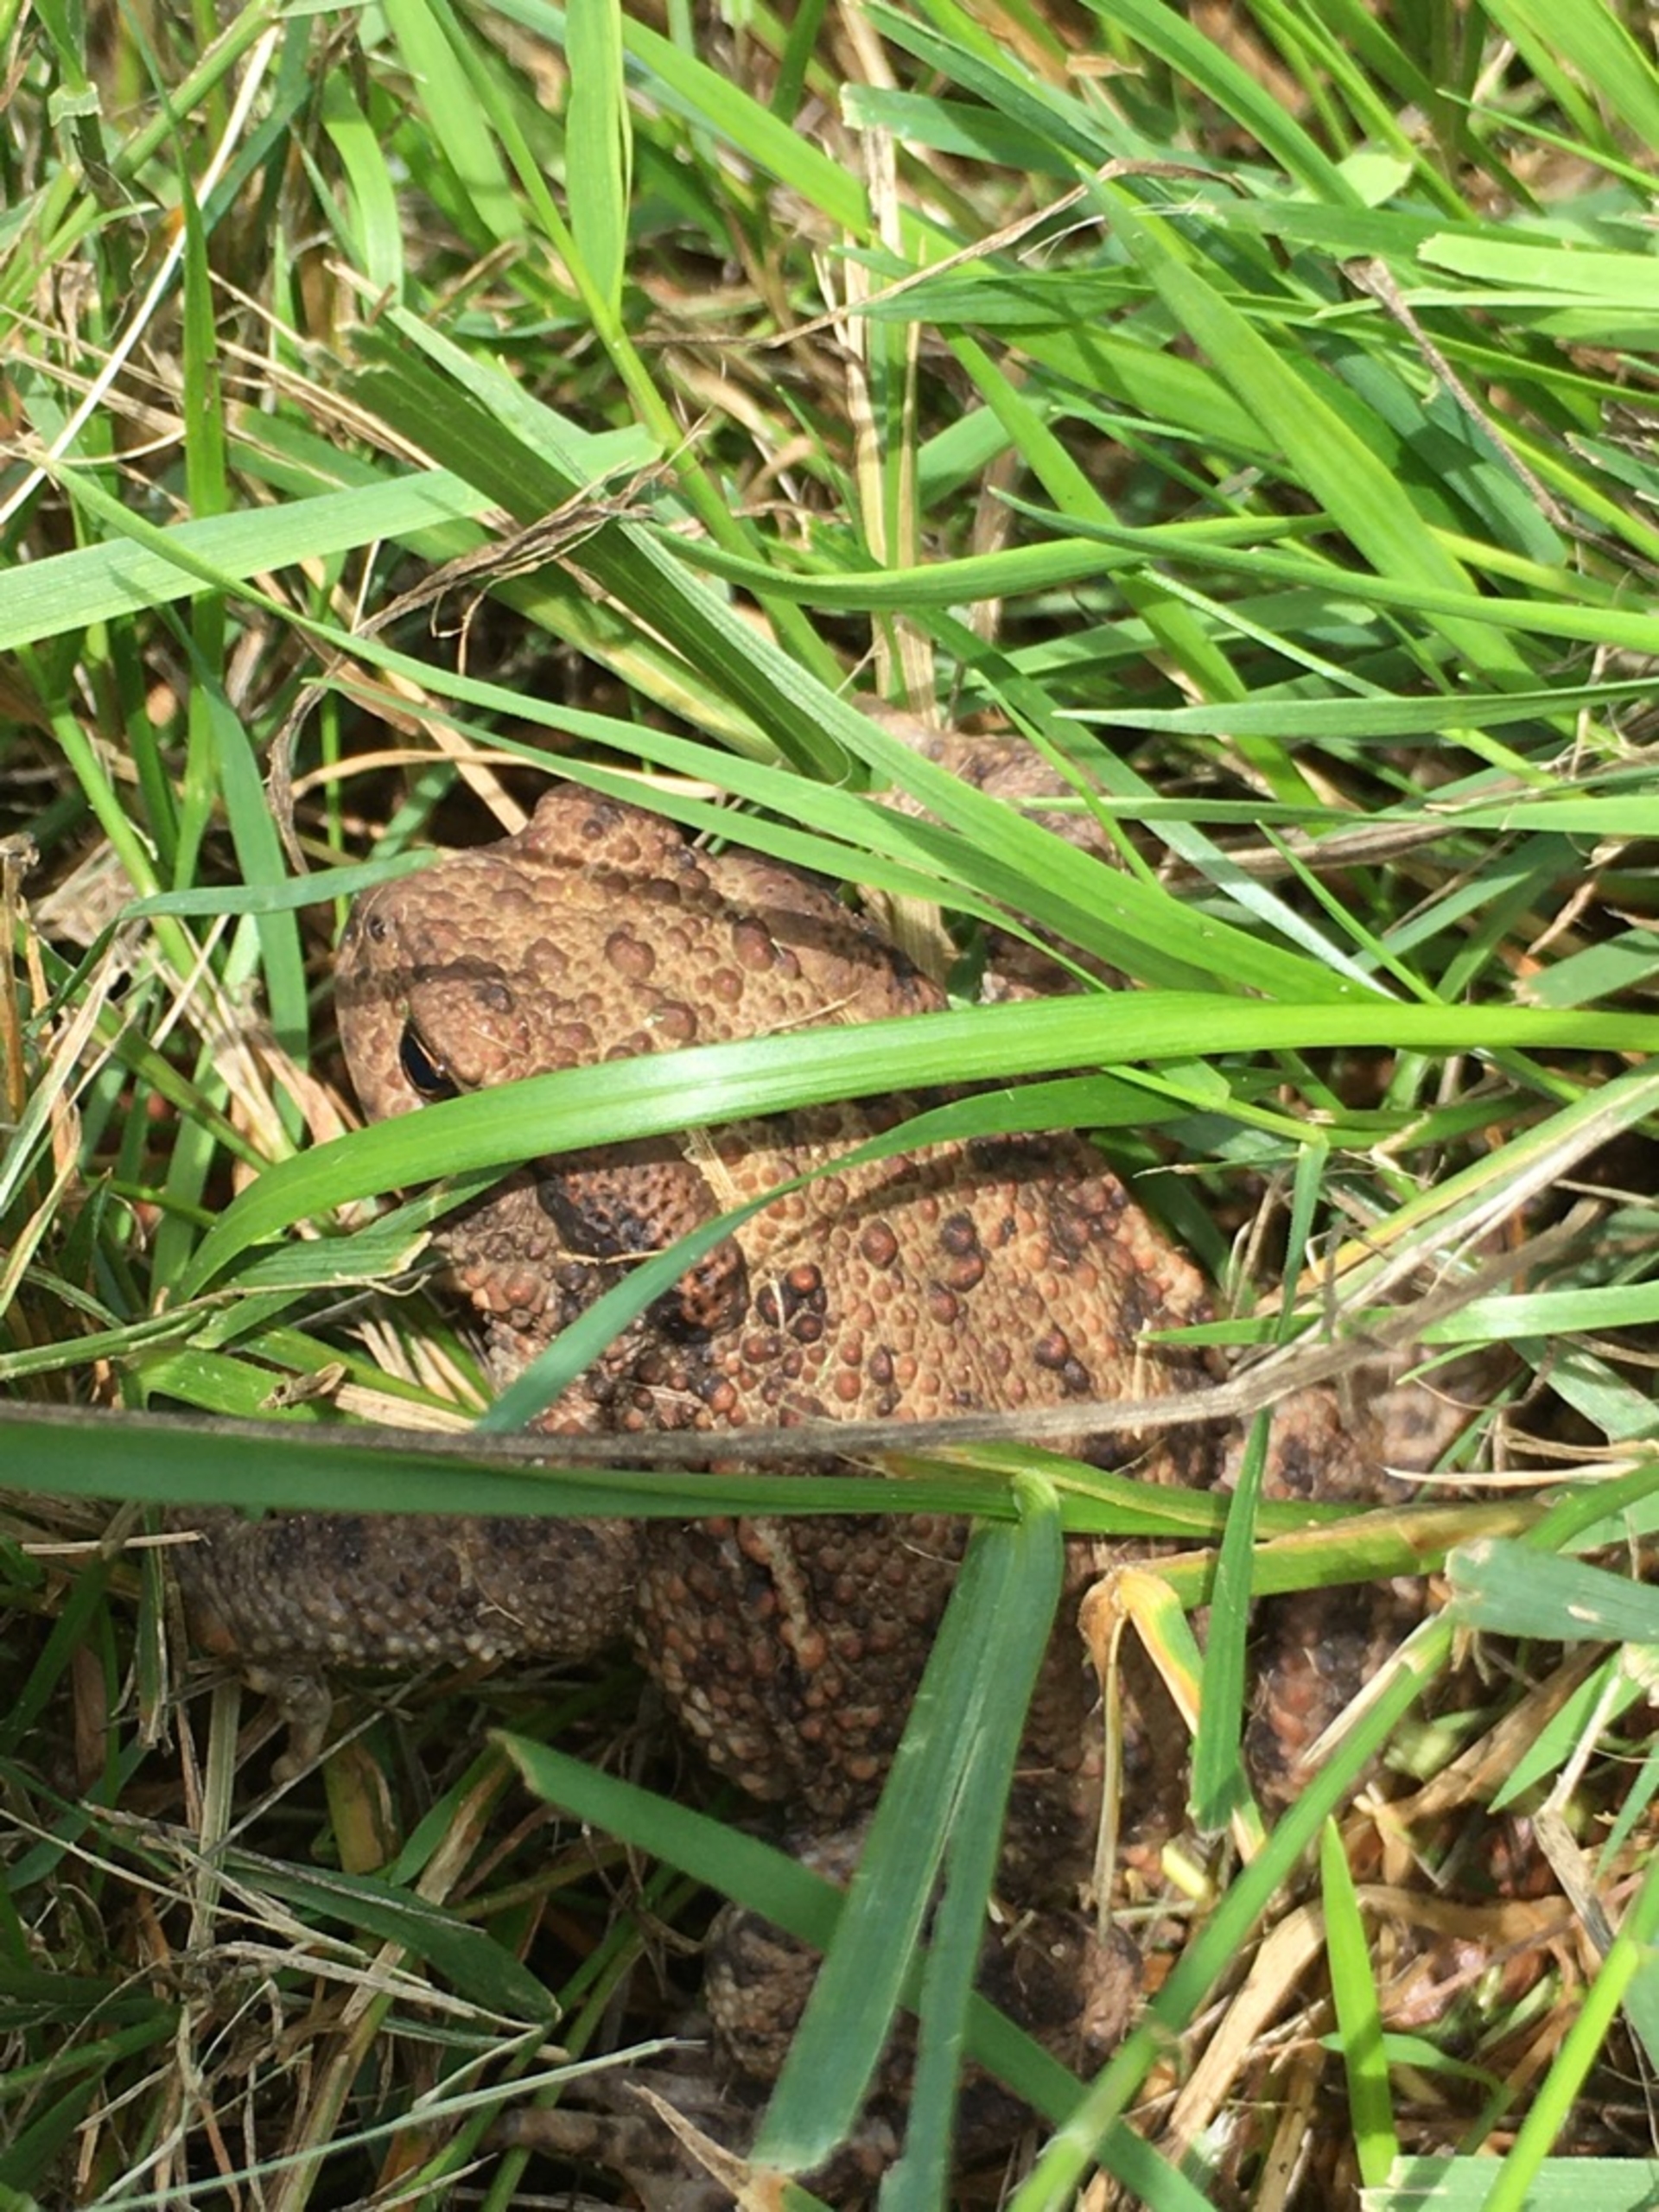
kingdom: Animalia
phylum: Chordata
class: Amphibia
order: Anura
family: Bufonidae
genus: Bufo
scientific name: Bufo bufo
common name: Skrubtudse
